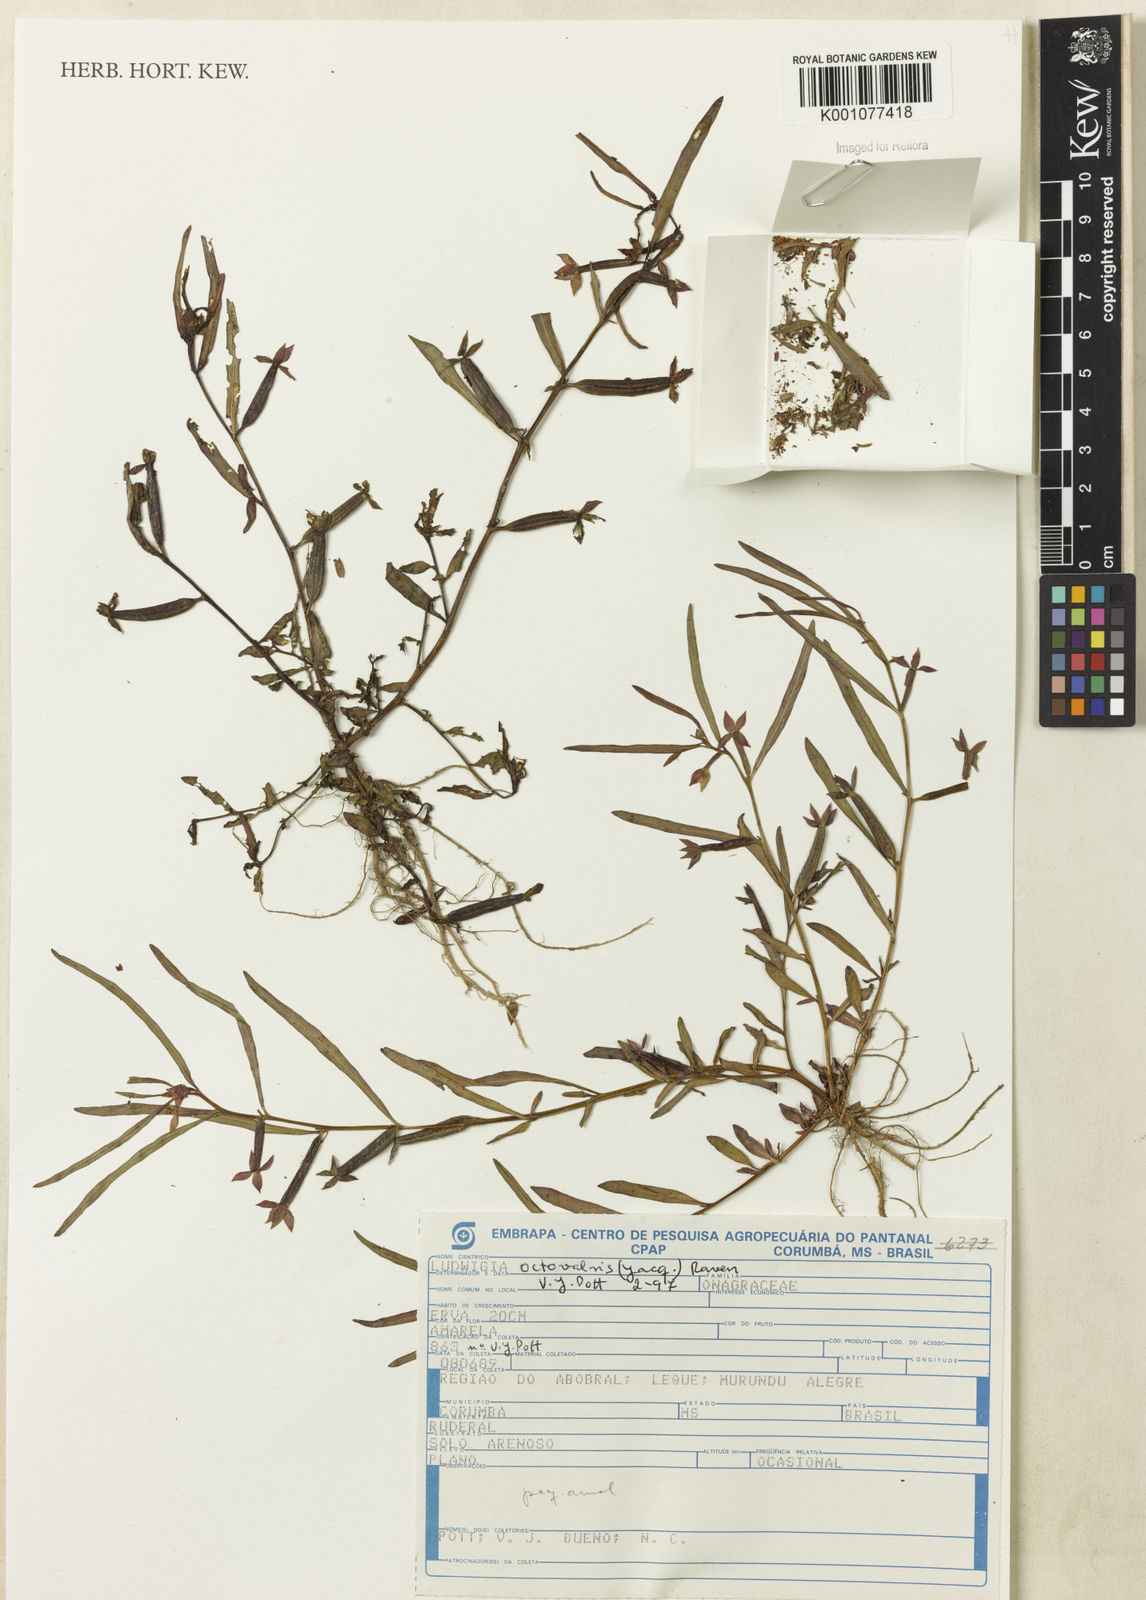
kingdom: Plantae
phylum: Tracheophyta
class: Magnoliopsida
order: Myrtales
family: Onagraceae
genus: Ludwigia
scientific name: Ludwigia octovalvis
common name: Water-primrose
